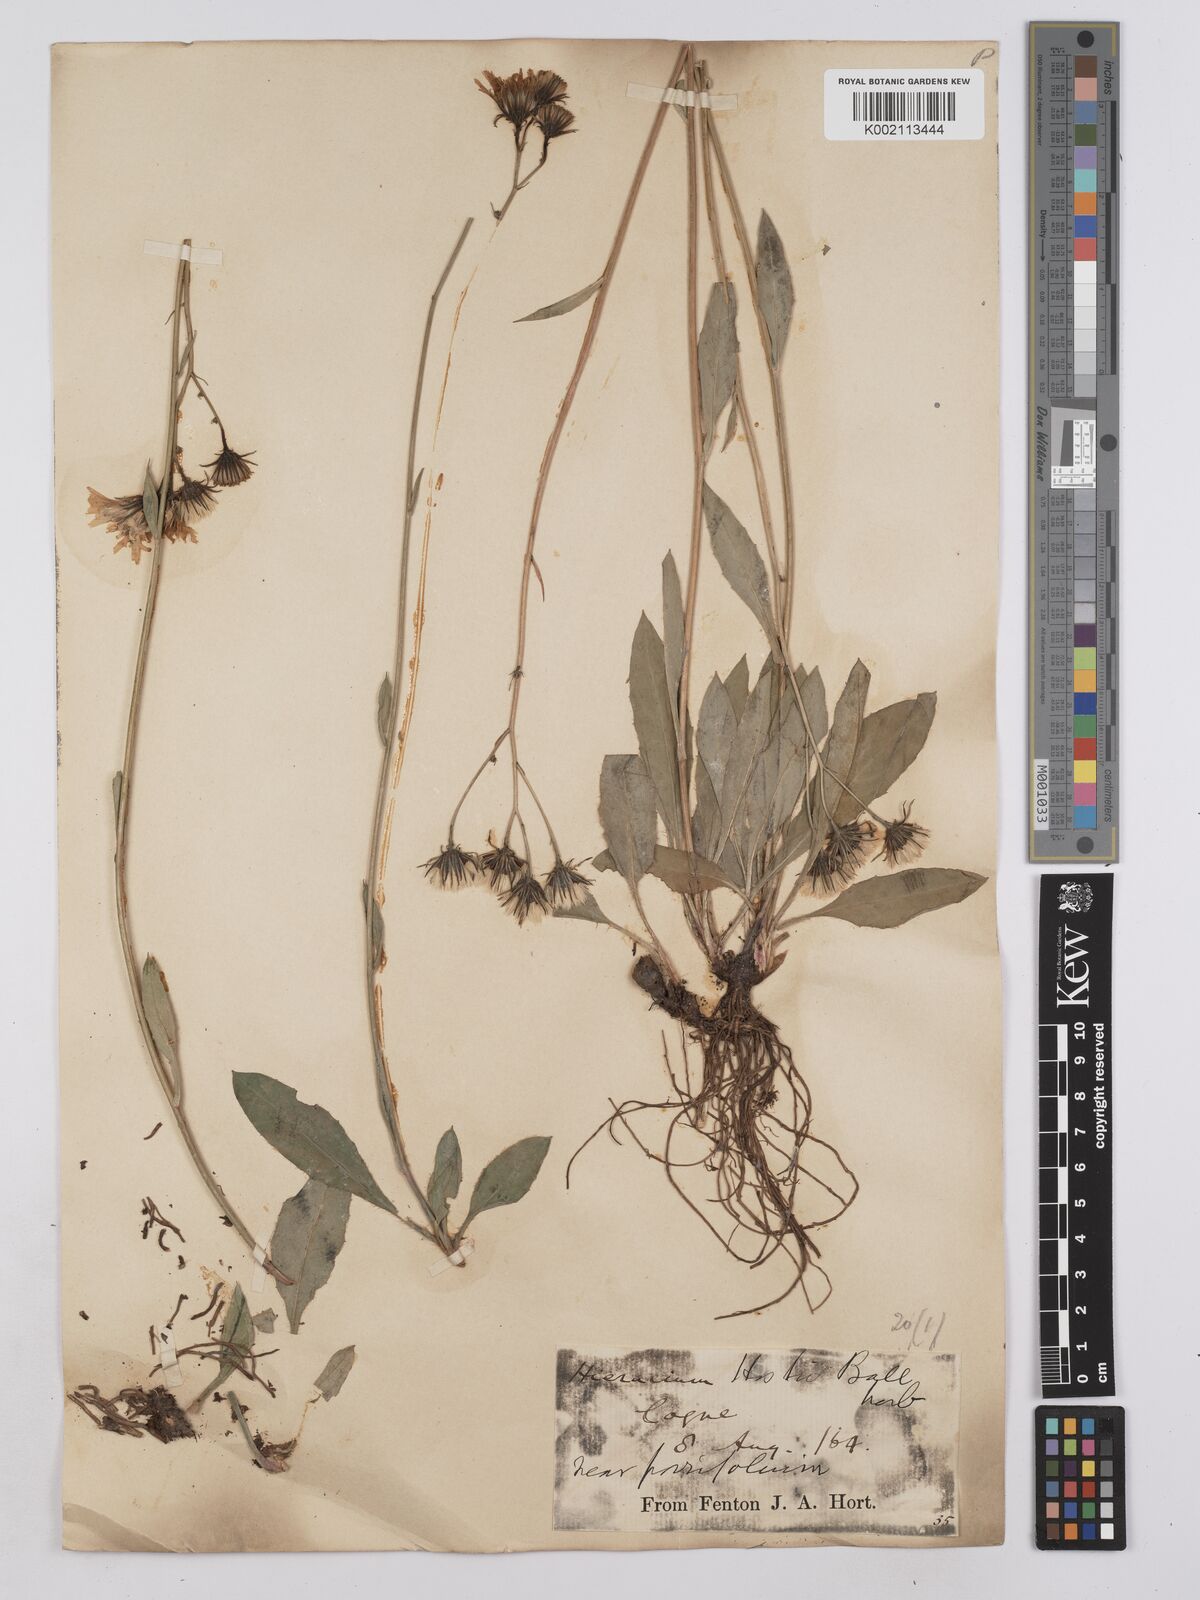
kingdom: Plantae
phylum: Tracheophyta
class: Magnoliopsida
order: Asterales
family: Asteraceae
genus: Hieracium
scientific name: Hieracium grausonicum
